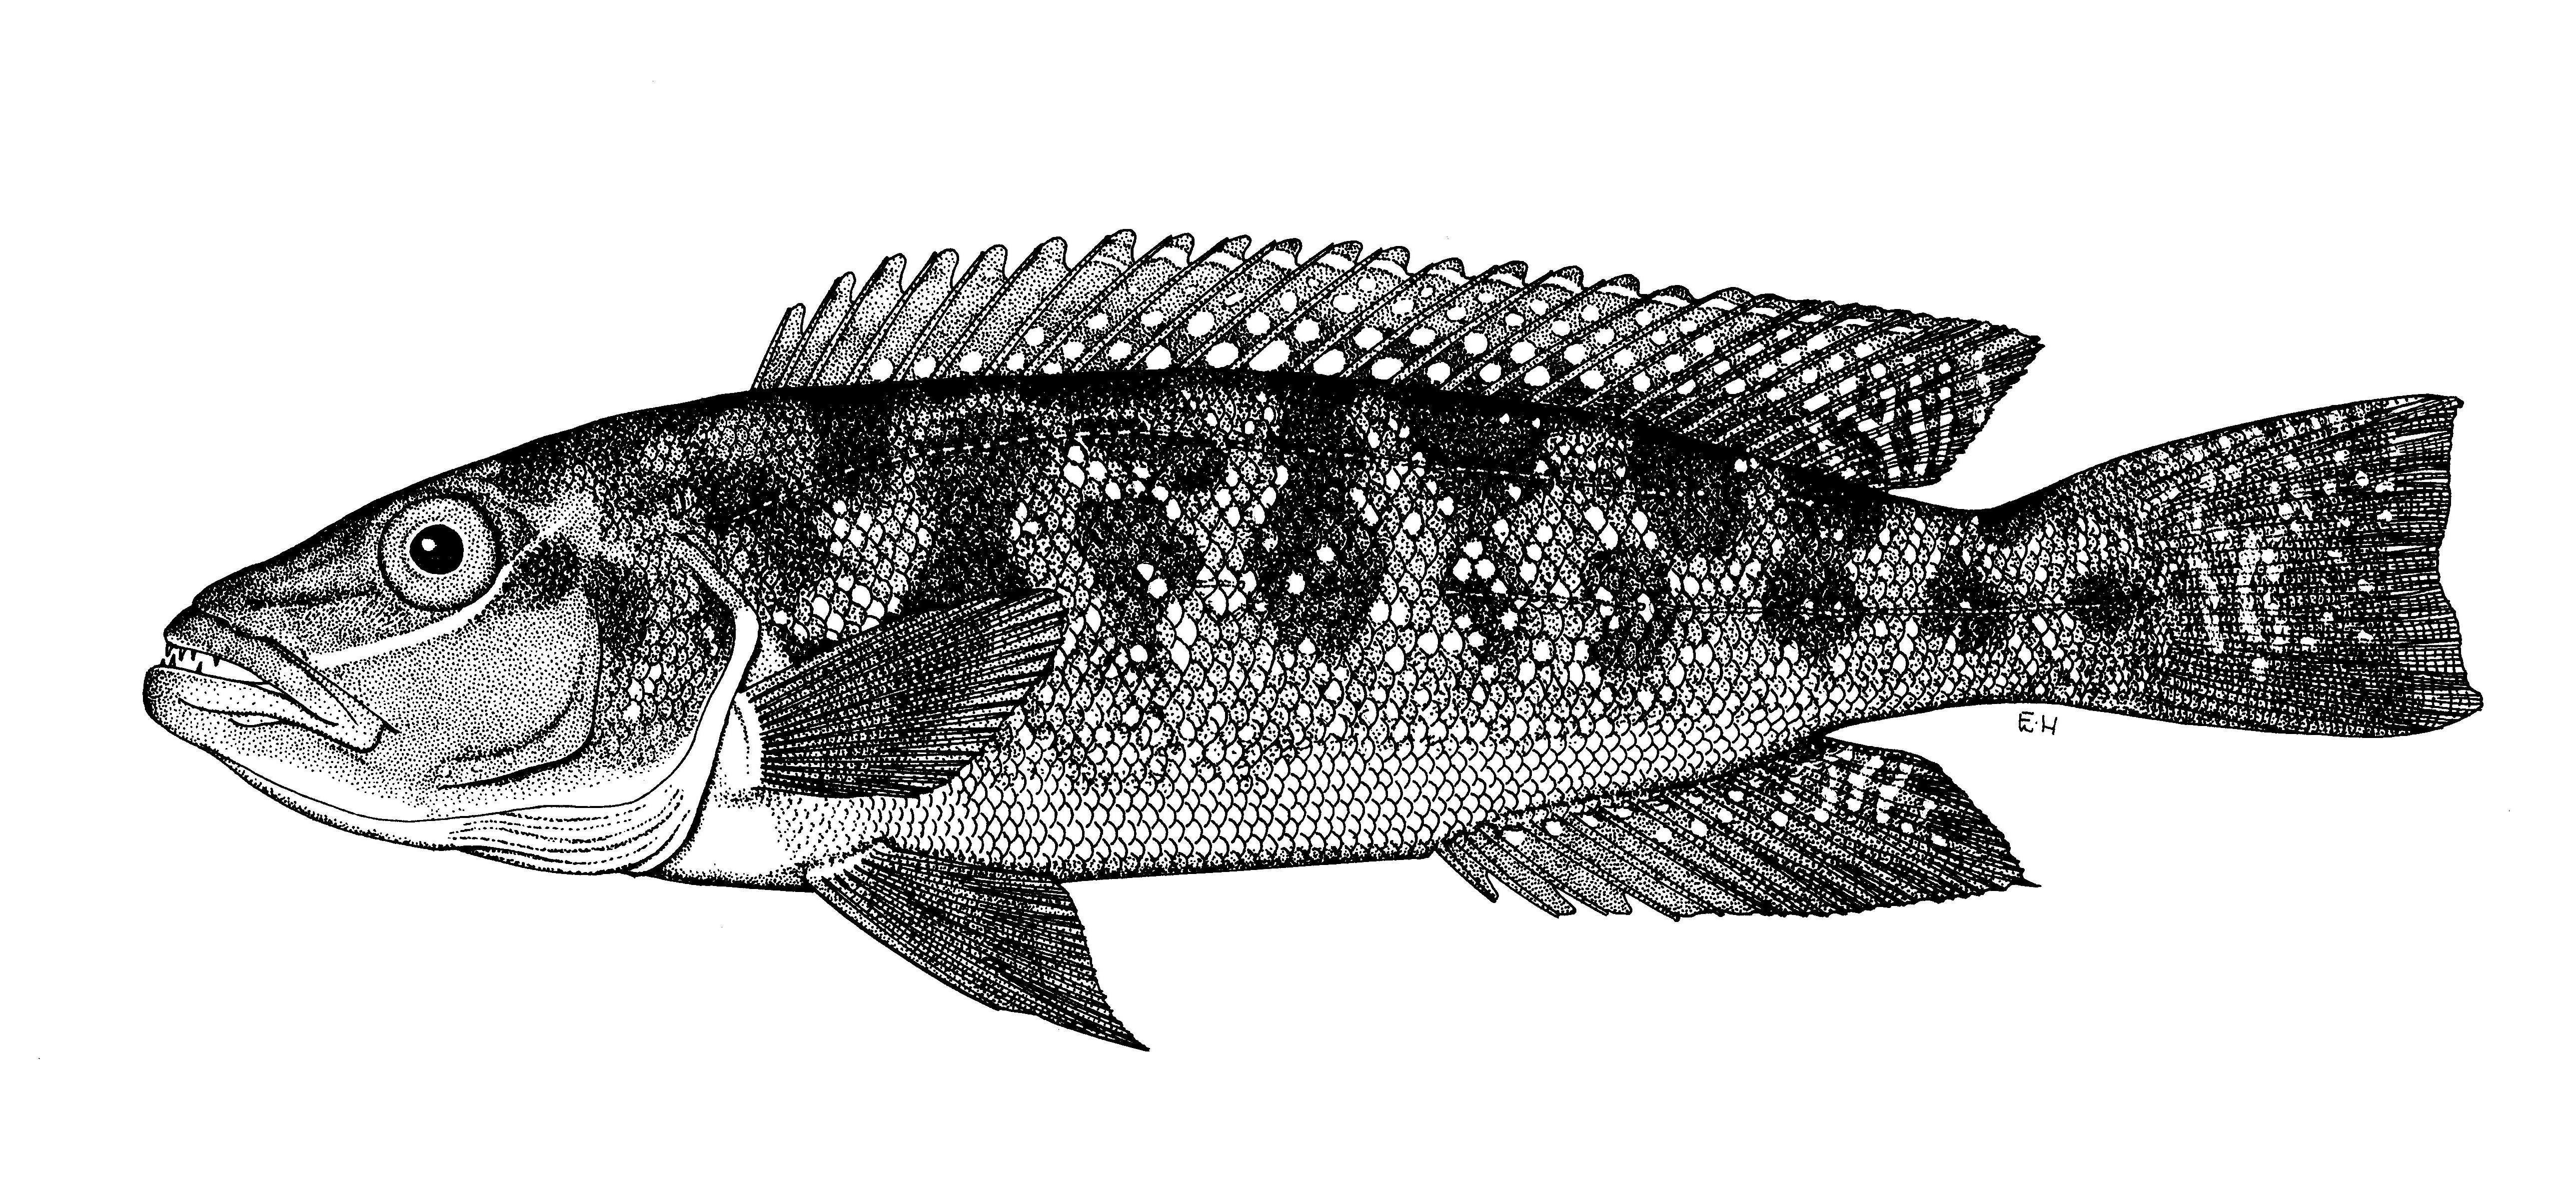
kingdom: Animalia
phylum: Chordata
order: Perciformes
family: Cichlidae
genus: Lepidiolamprologus
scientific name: Lepidiolamprologus mimicus
